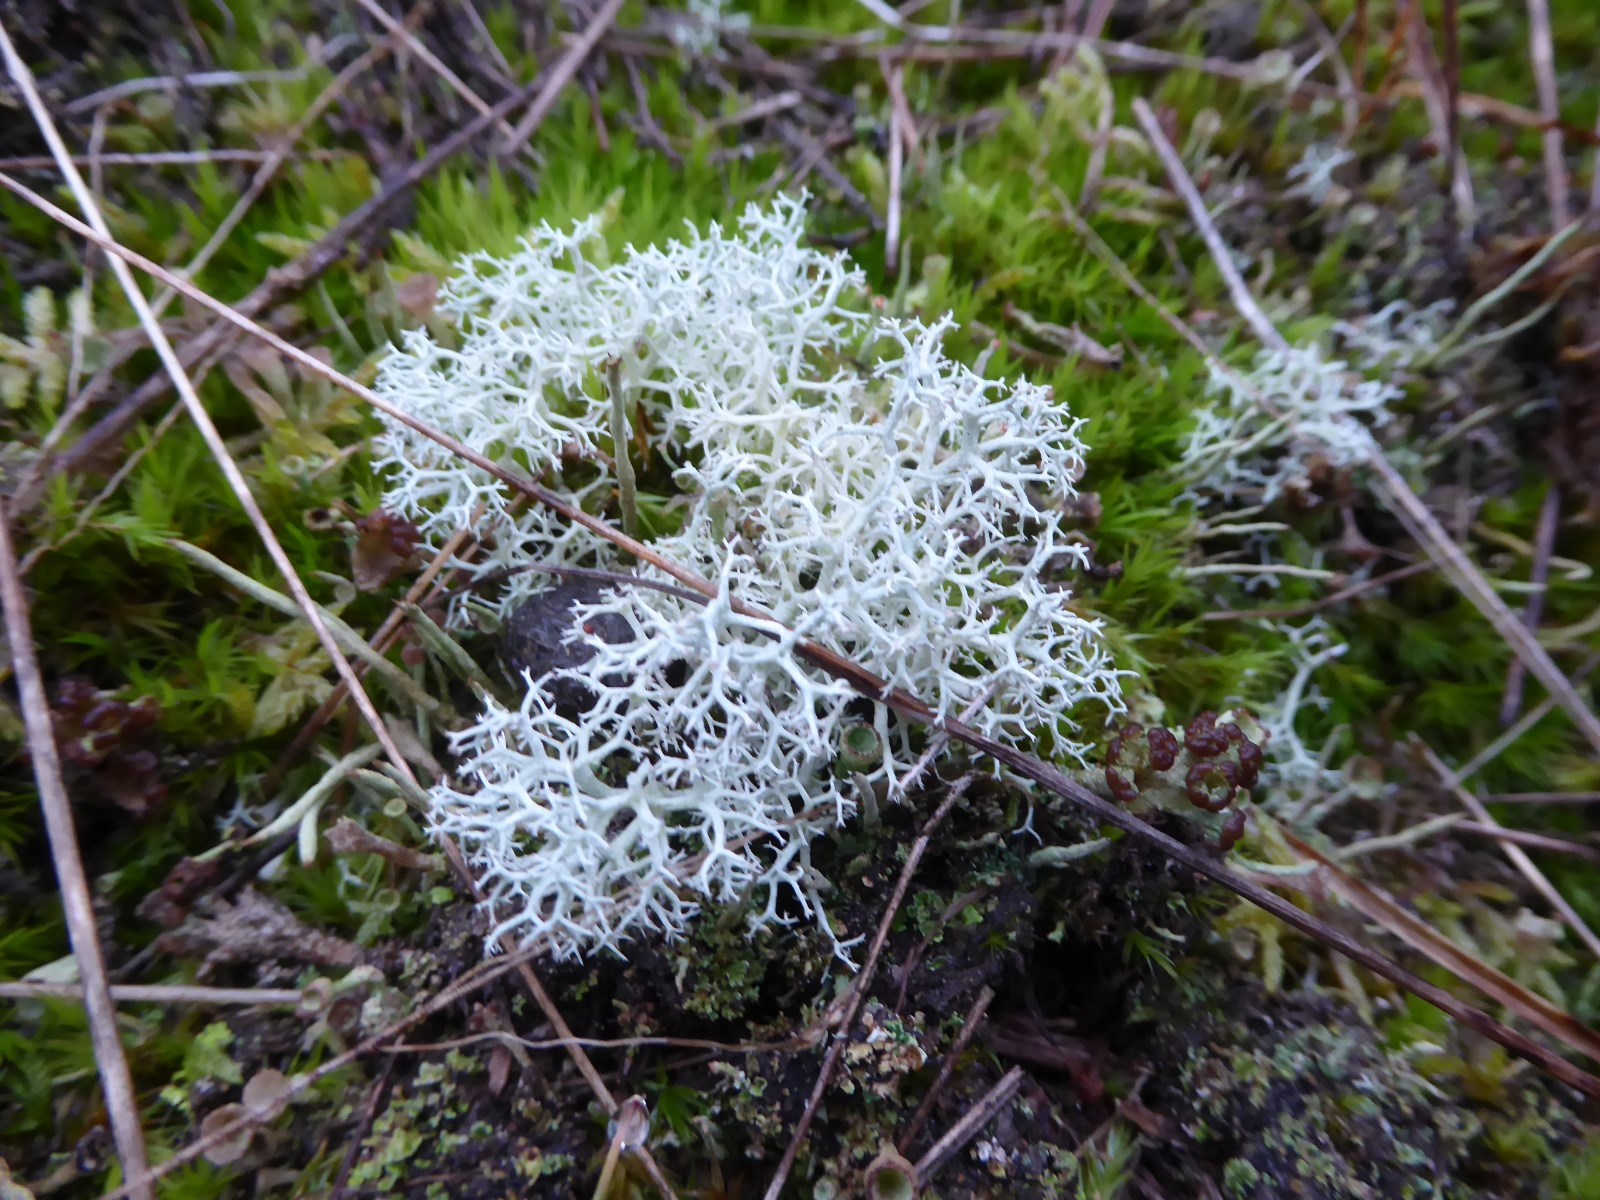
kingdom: Fungi
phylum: Ascomycota
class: Lecanoromycetes
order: Lecanorales
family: Cladoniaceae
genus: Cladonia
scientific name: Cladonia portentosa
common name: hede-rensdyrlav
